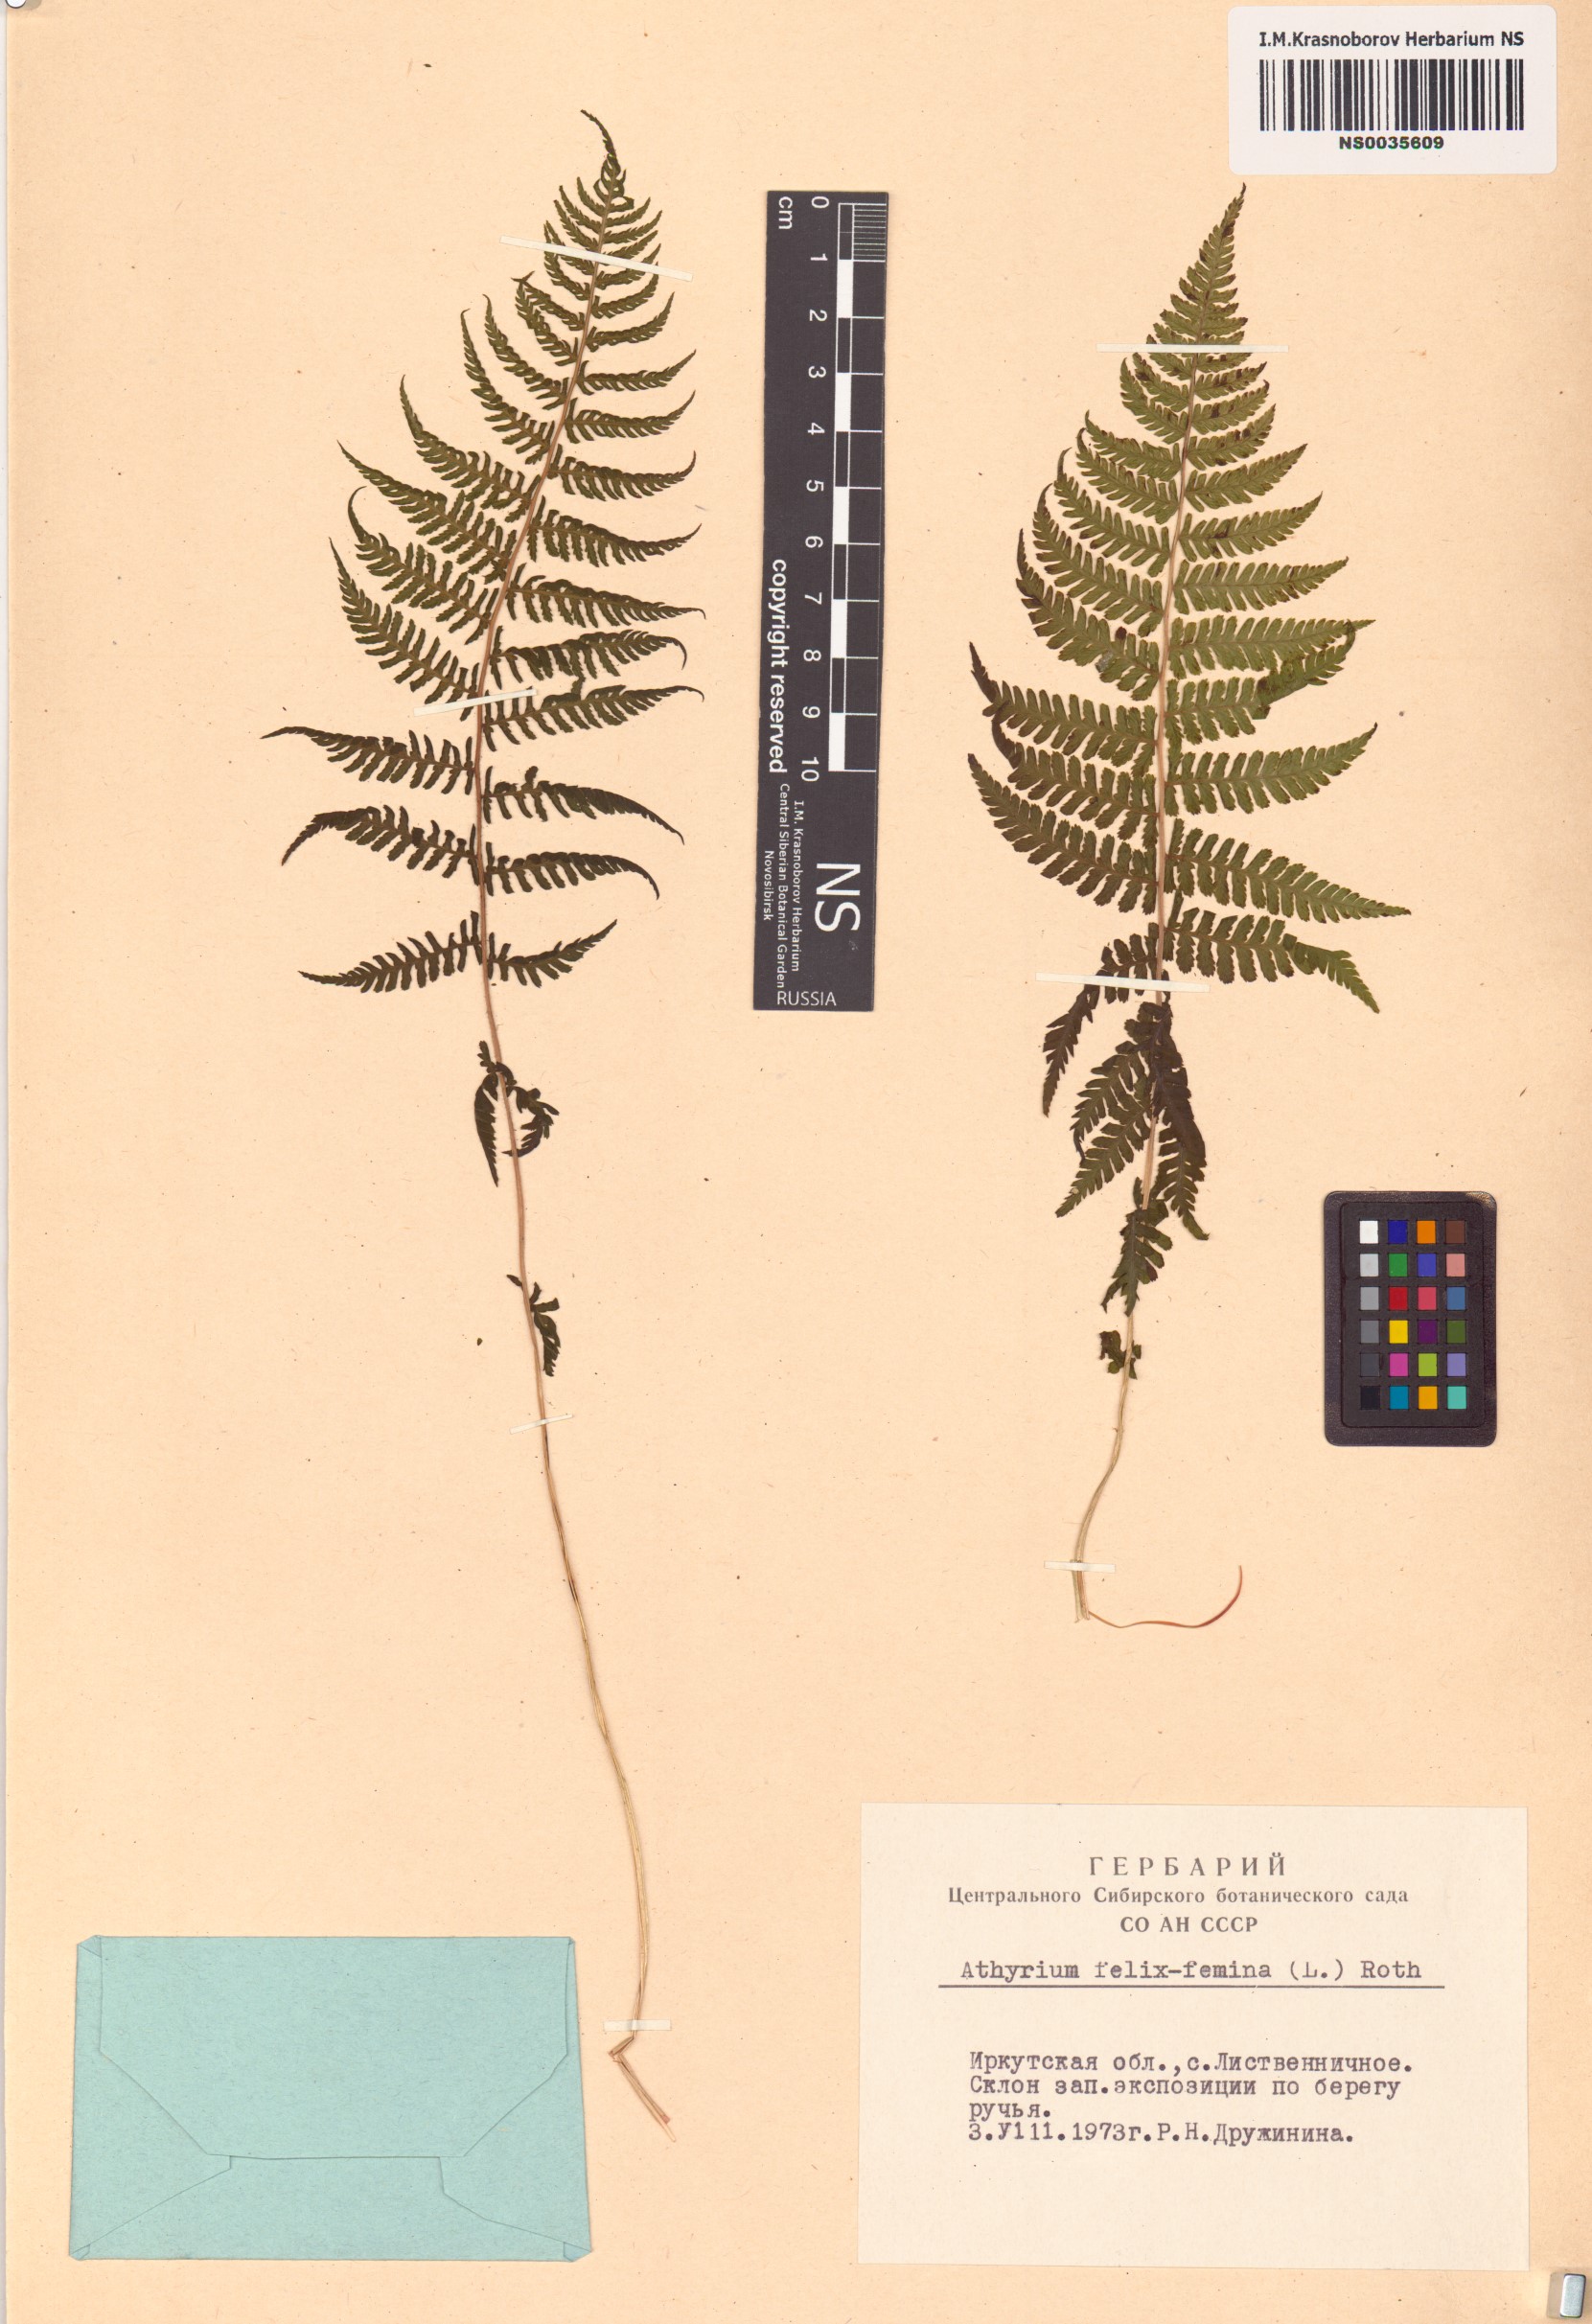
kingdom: Plantae
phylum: Tracheophyta
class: Polypodiopsida
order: Polypodiales
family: Athyriaceae
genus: Athyrium
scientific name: Athyrium filix-femina
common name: Lady fern
